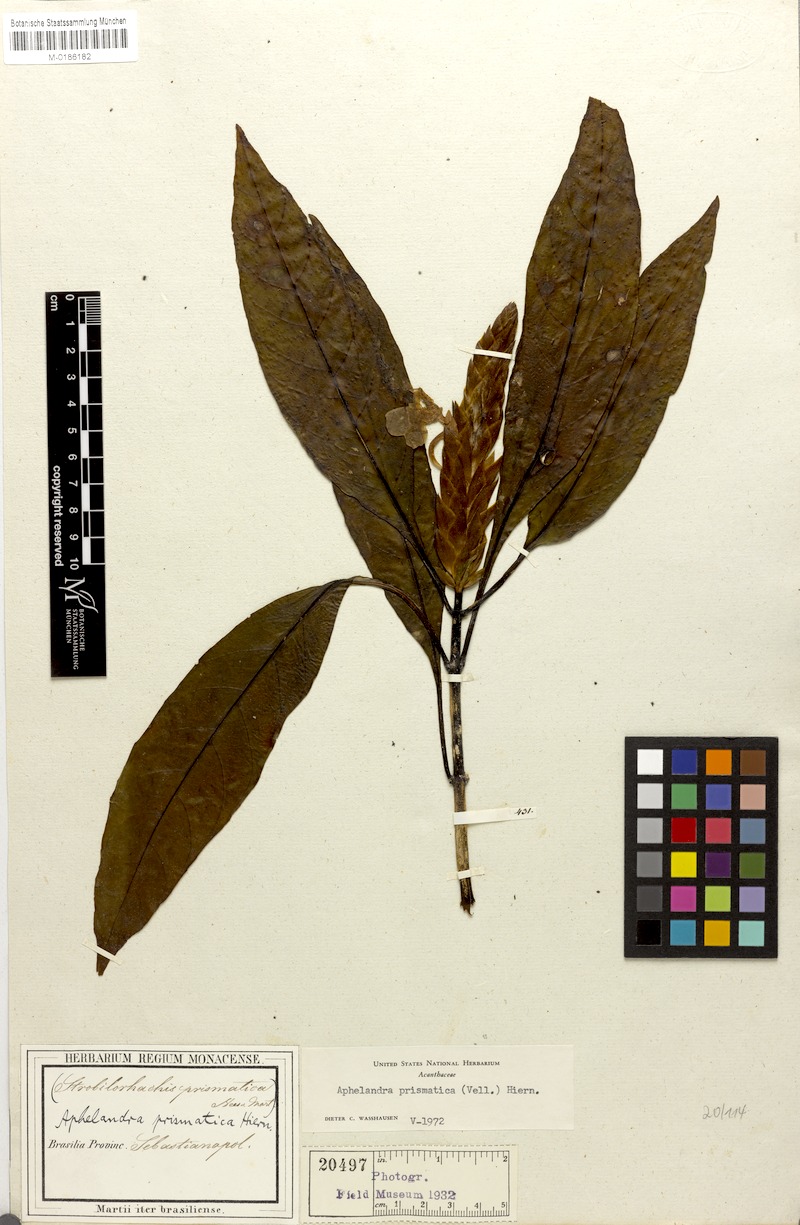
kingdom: Plantae
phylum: Tracheophyta
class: Magnoliopsida
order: Lamiales
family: Acanthaceae
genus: Aphelandra
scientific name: Aphelandra prismatica
